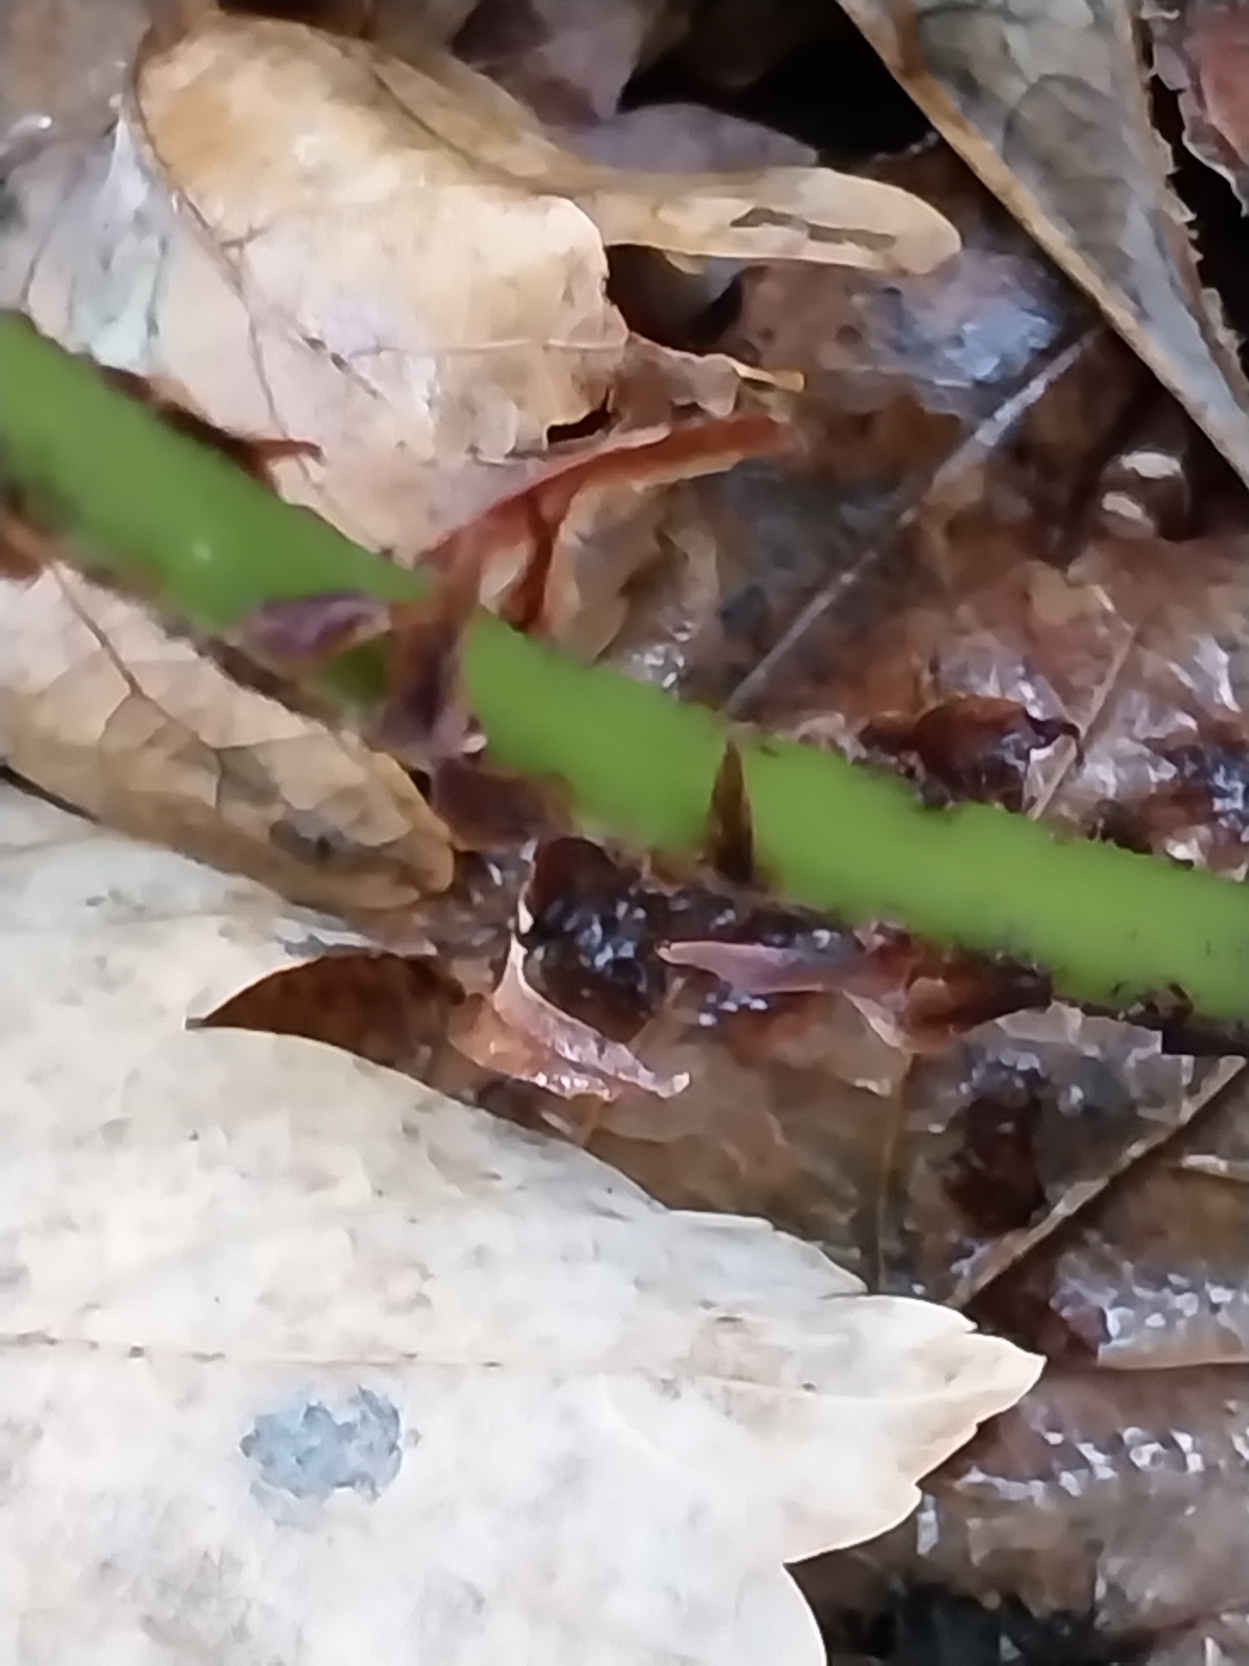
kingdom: Plantae
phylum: Tracheophyta
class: Polypodiopsida
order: Polypodiales
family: Dryopteridaceae
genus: Dryopteris
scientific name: Dryopteris dilatata
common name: Bredbladet mangeløv
